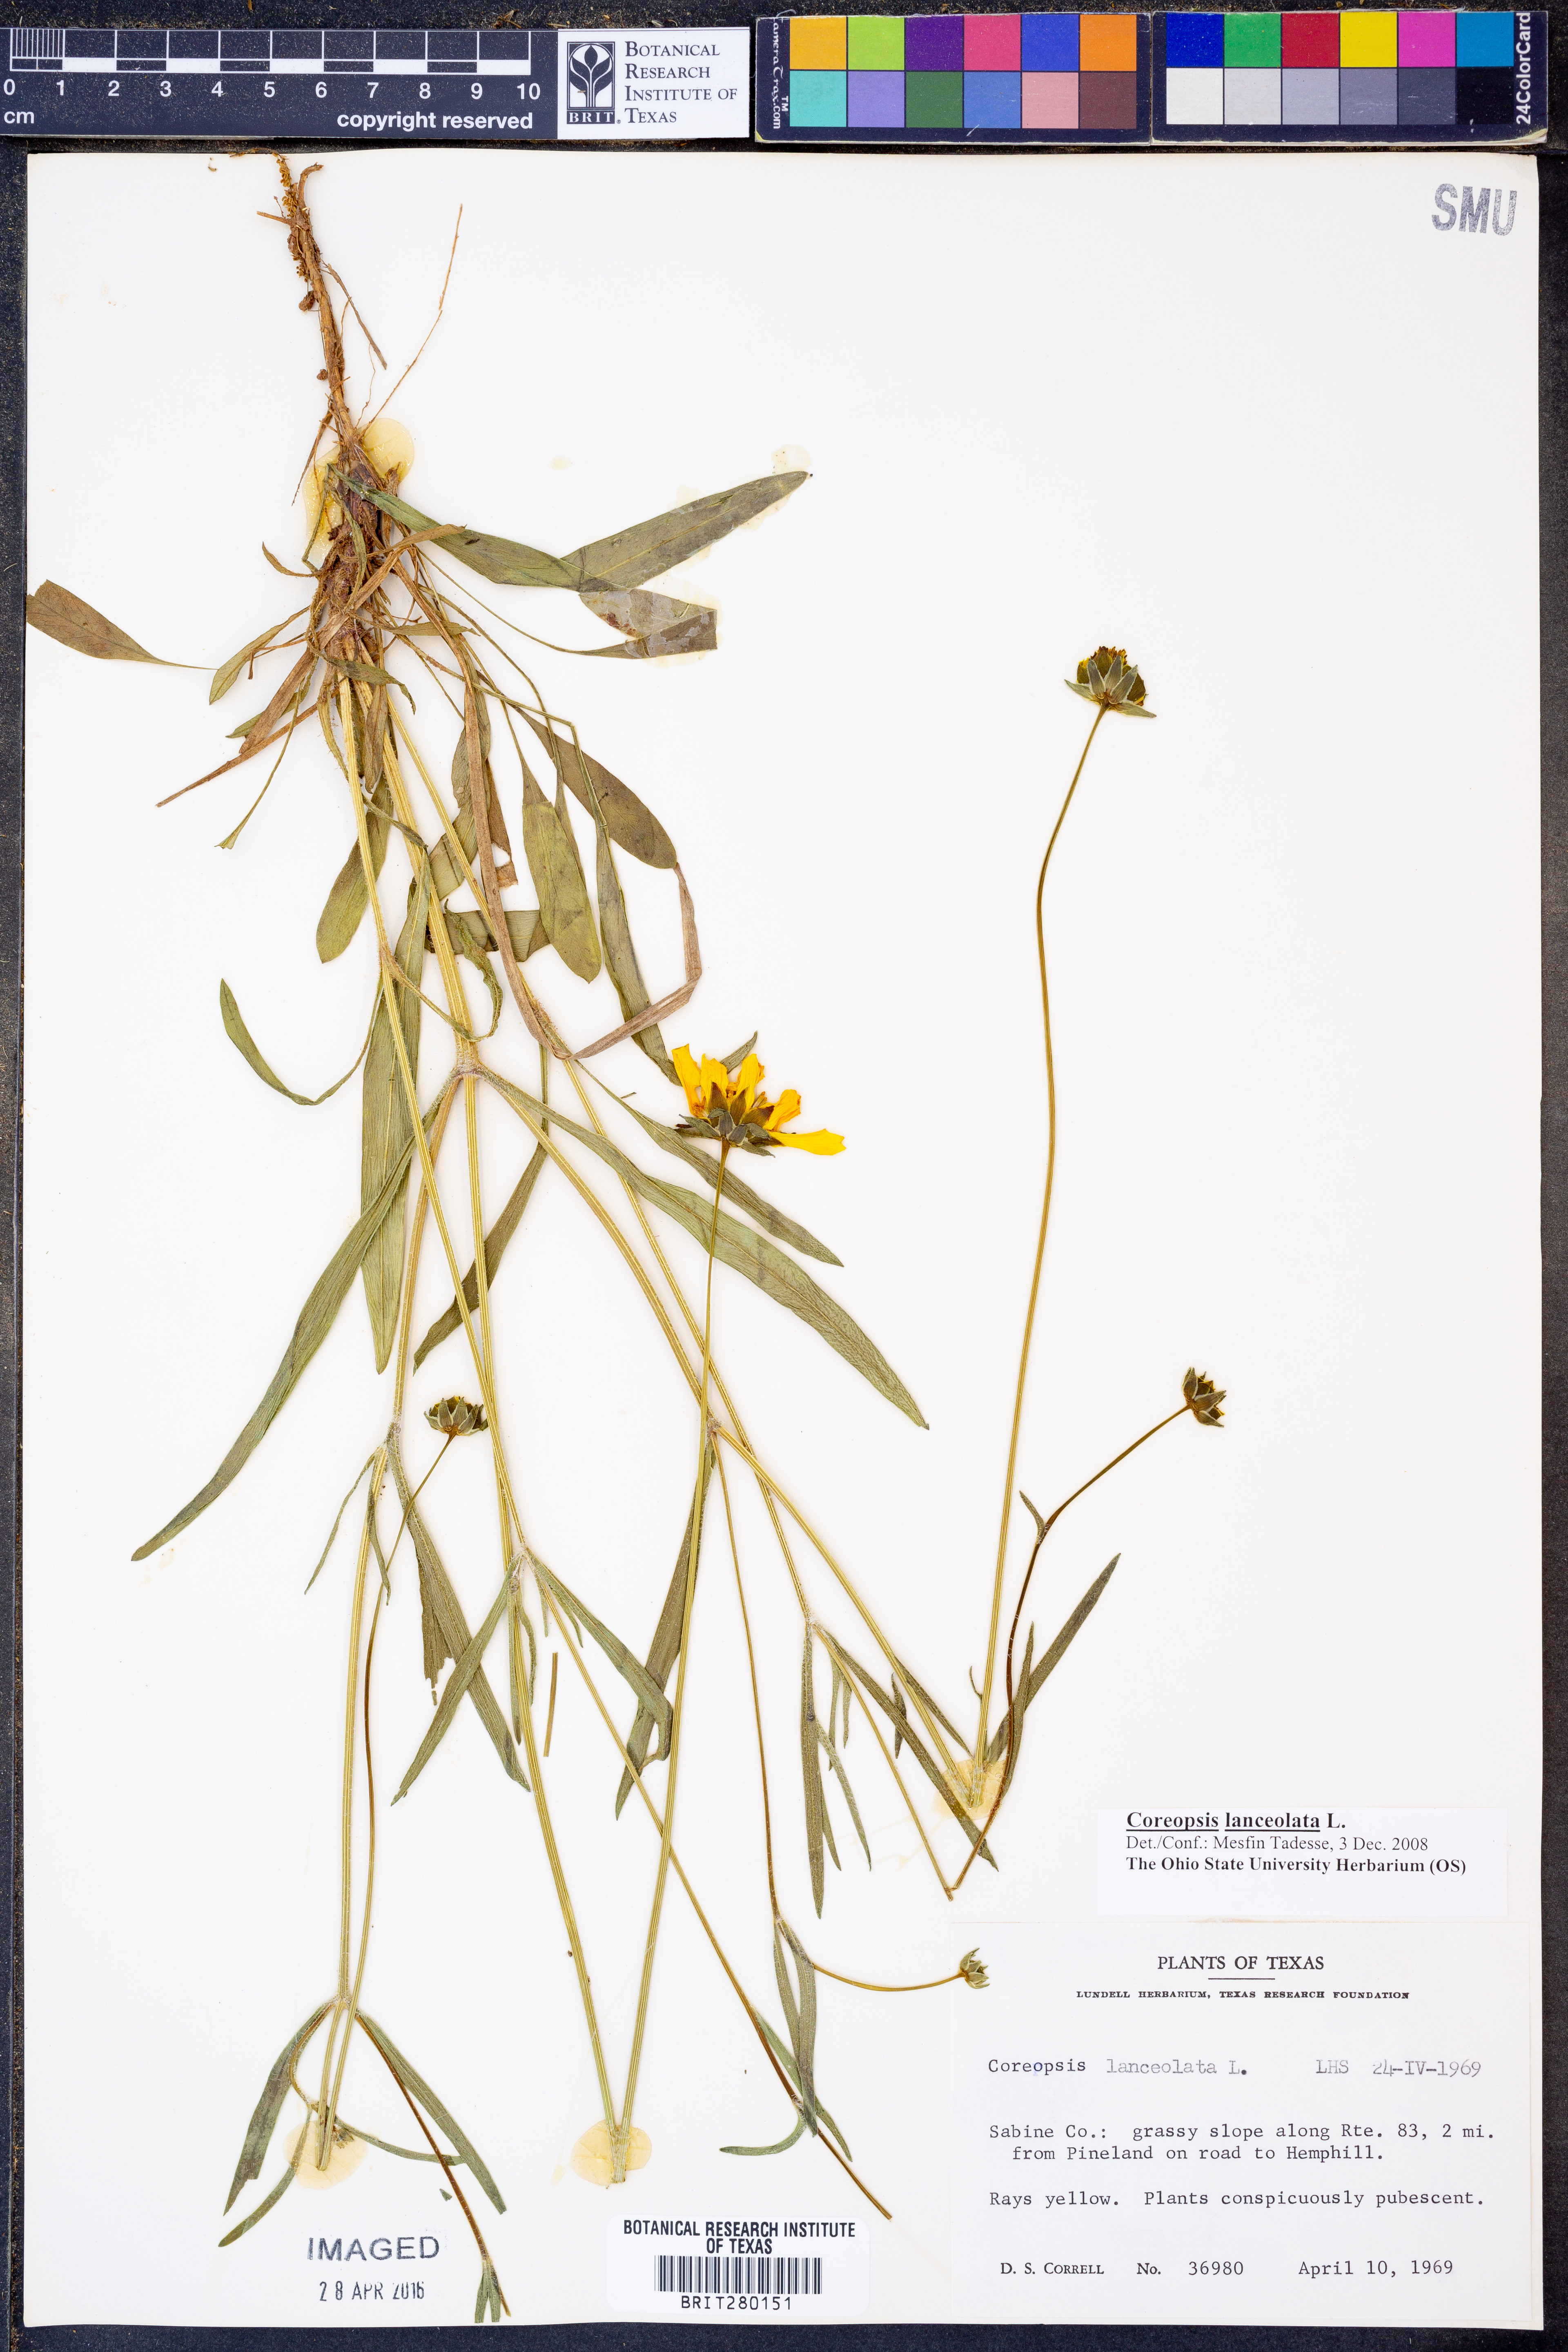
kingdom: Plantae
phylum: Tracheophyta
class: Magnoliopsida
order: Asterales
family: Asteraceae
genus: Coreopsis
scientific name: Coreopsis lanceolata
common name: Garden coreopsis
